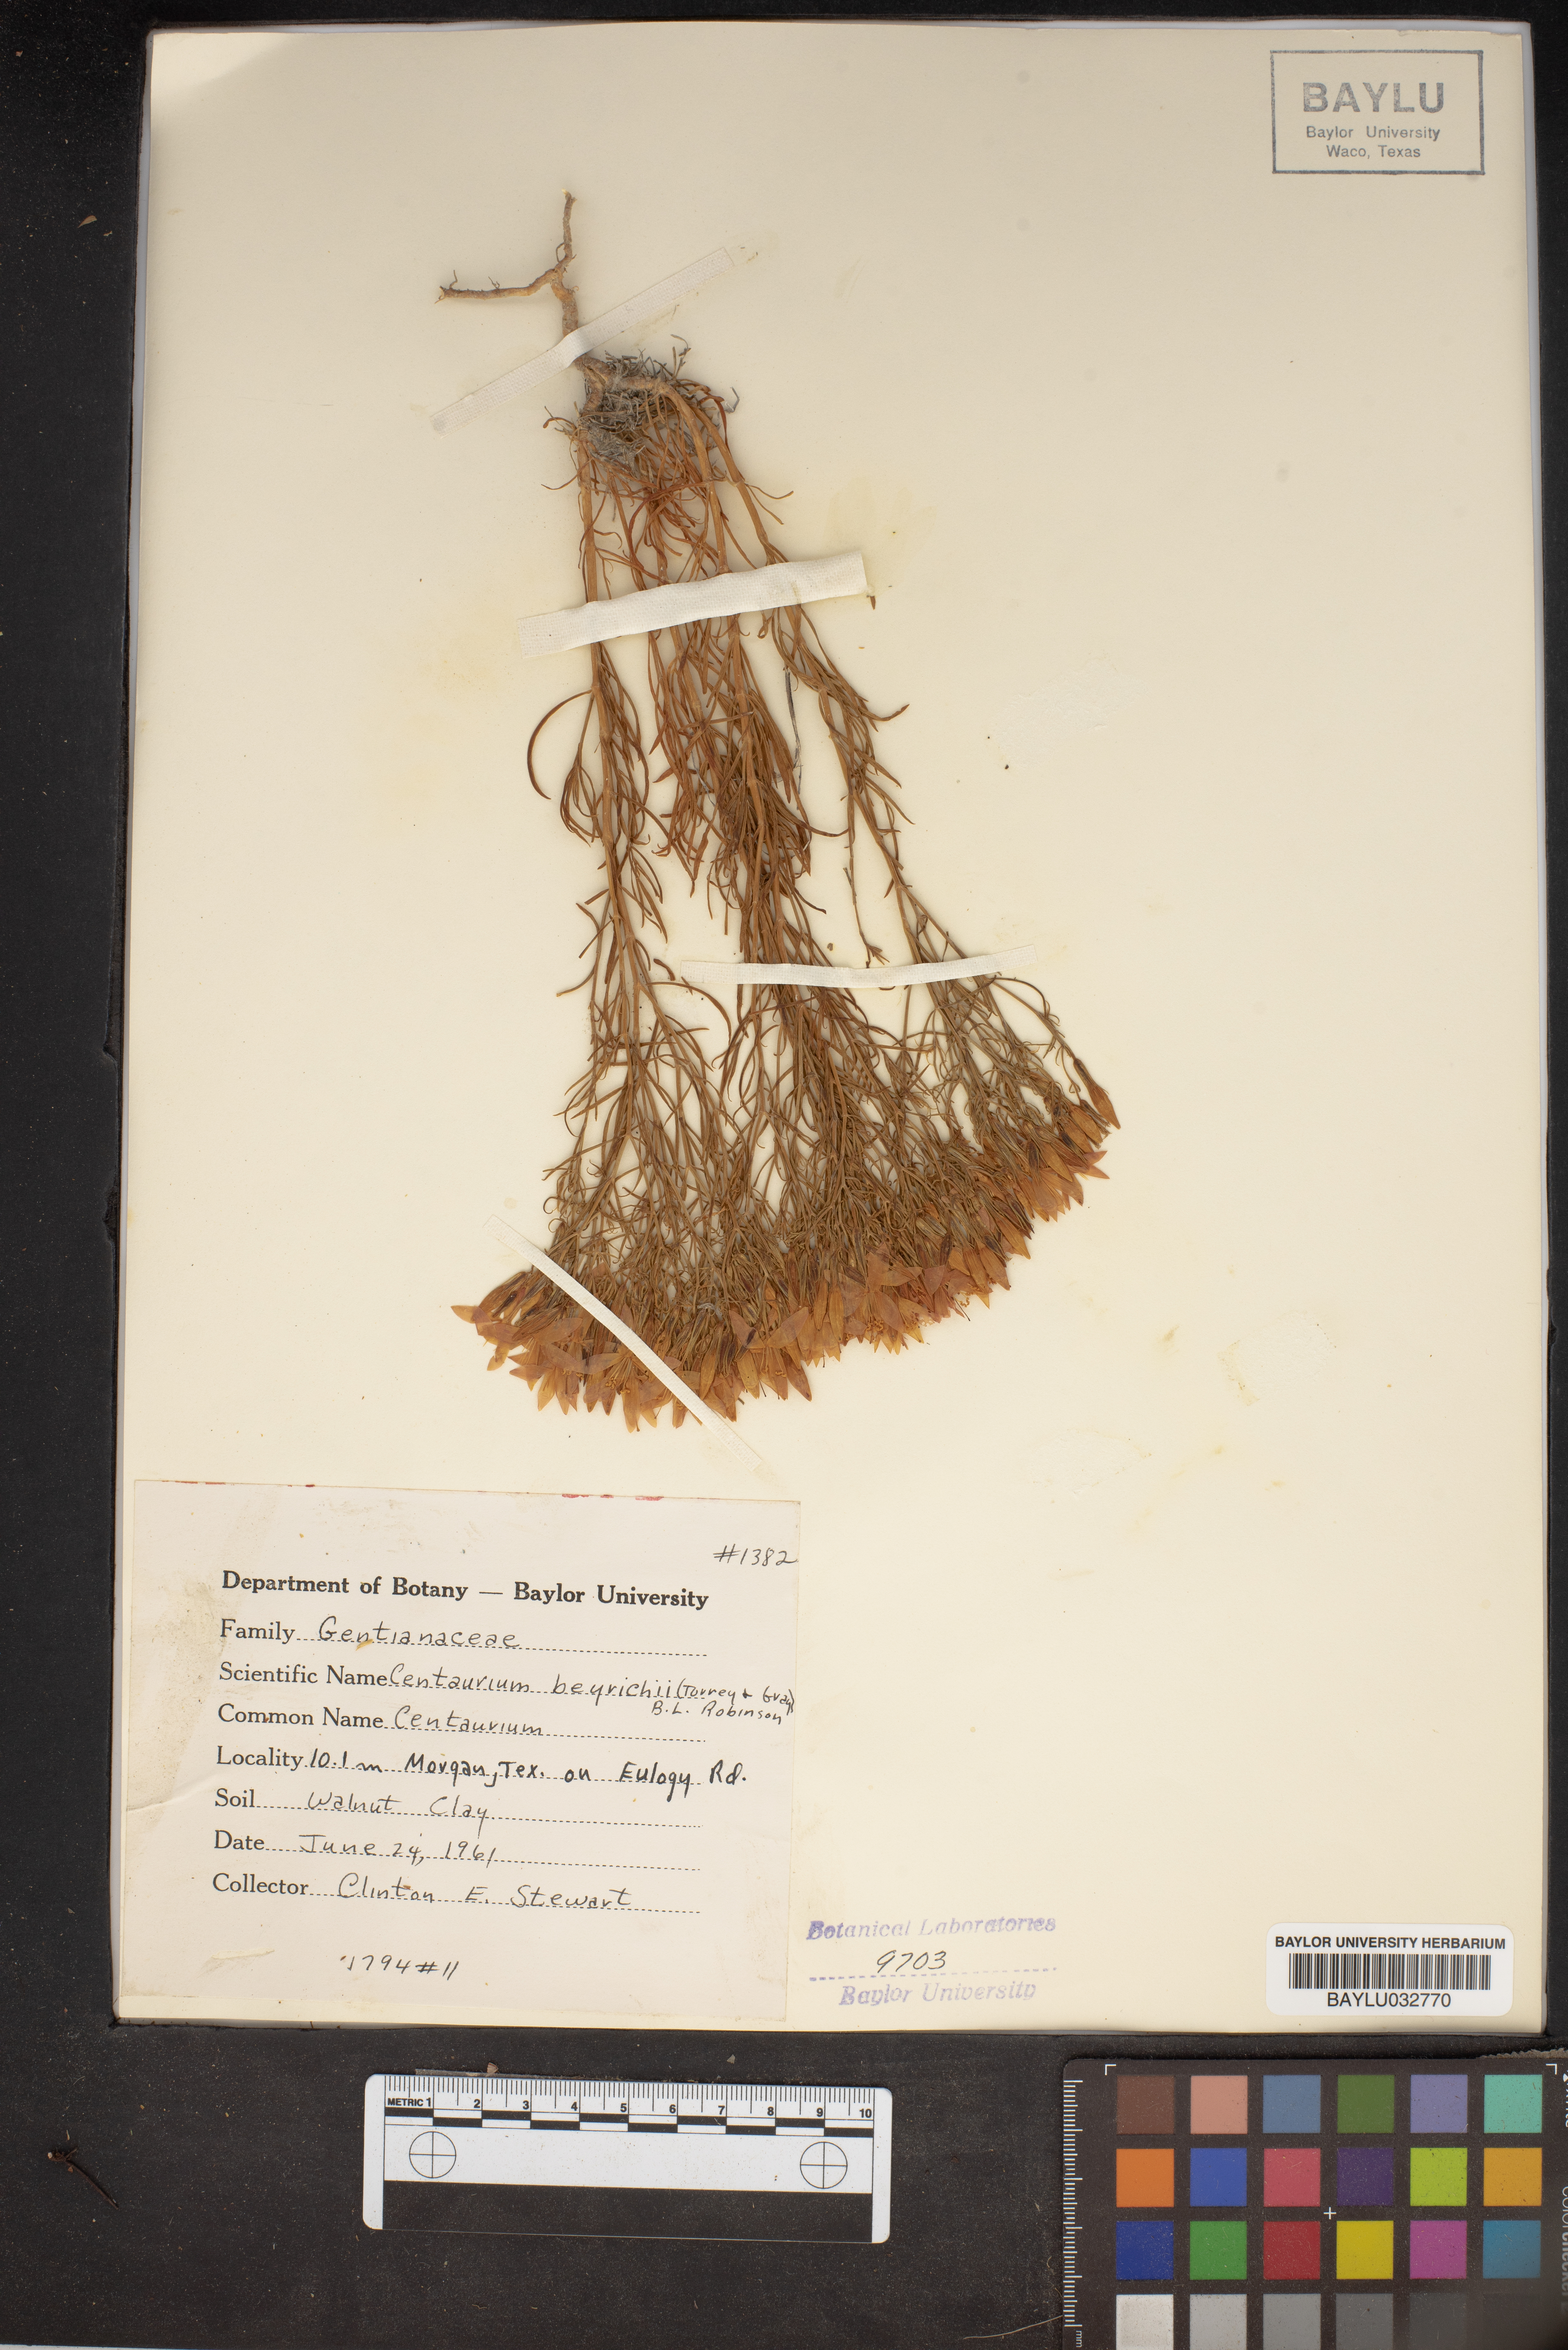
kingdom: Plantae
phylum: Tracheophyta
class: Magnoliopsida
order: Gentianales
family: Gentianaceae
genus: Zeltnera
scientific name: Zeltnera beyrichii
